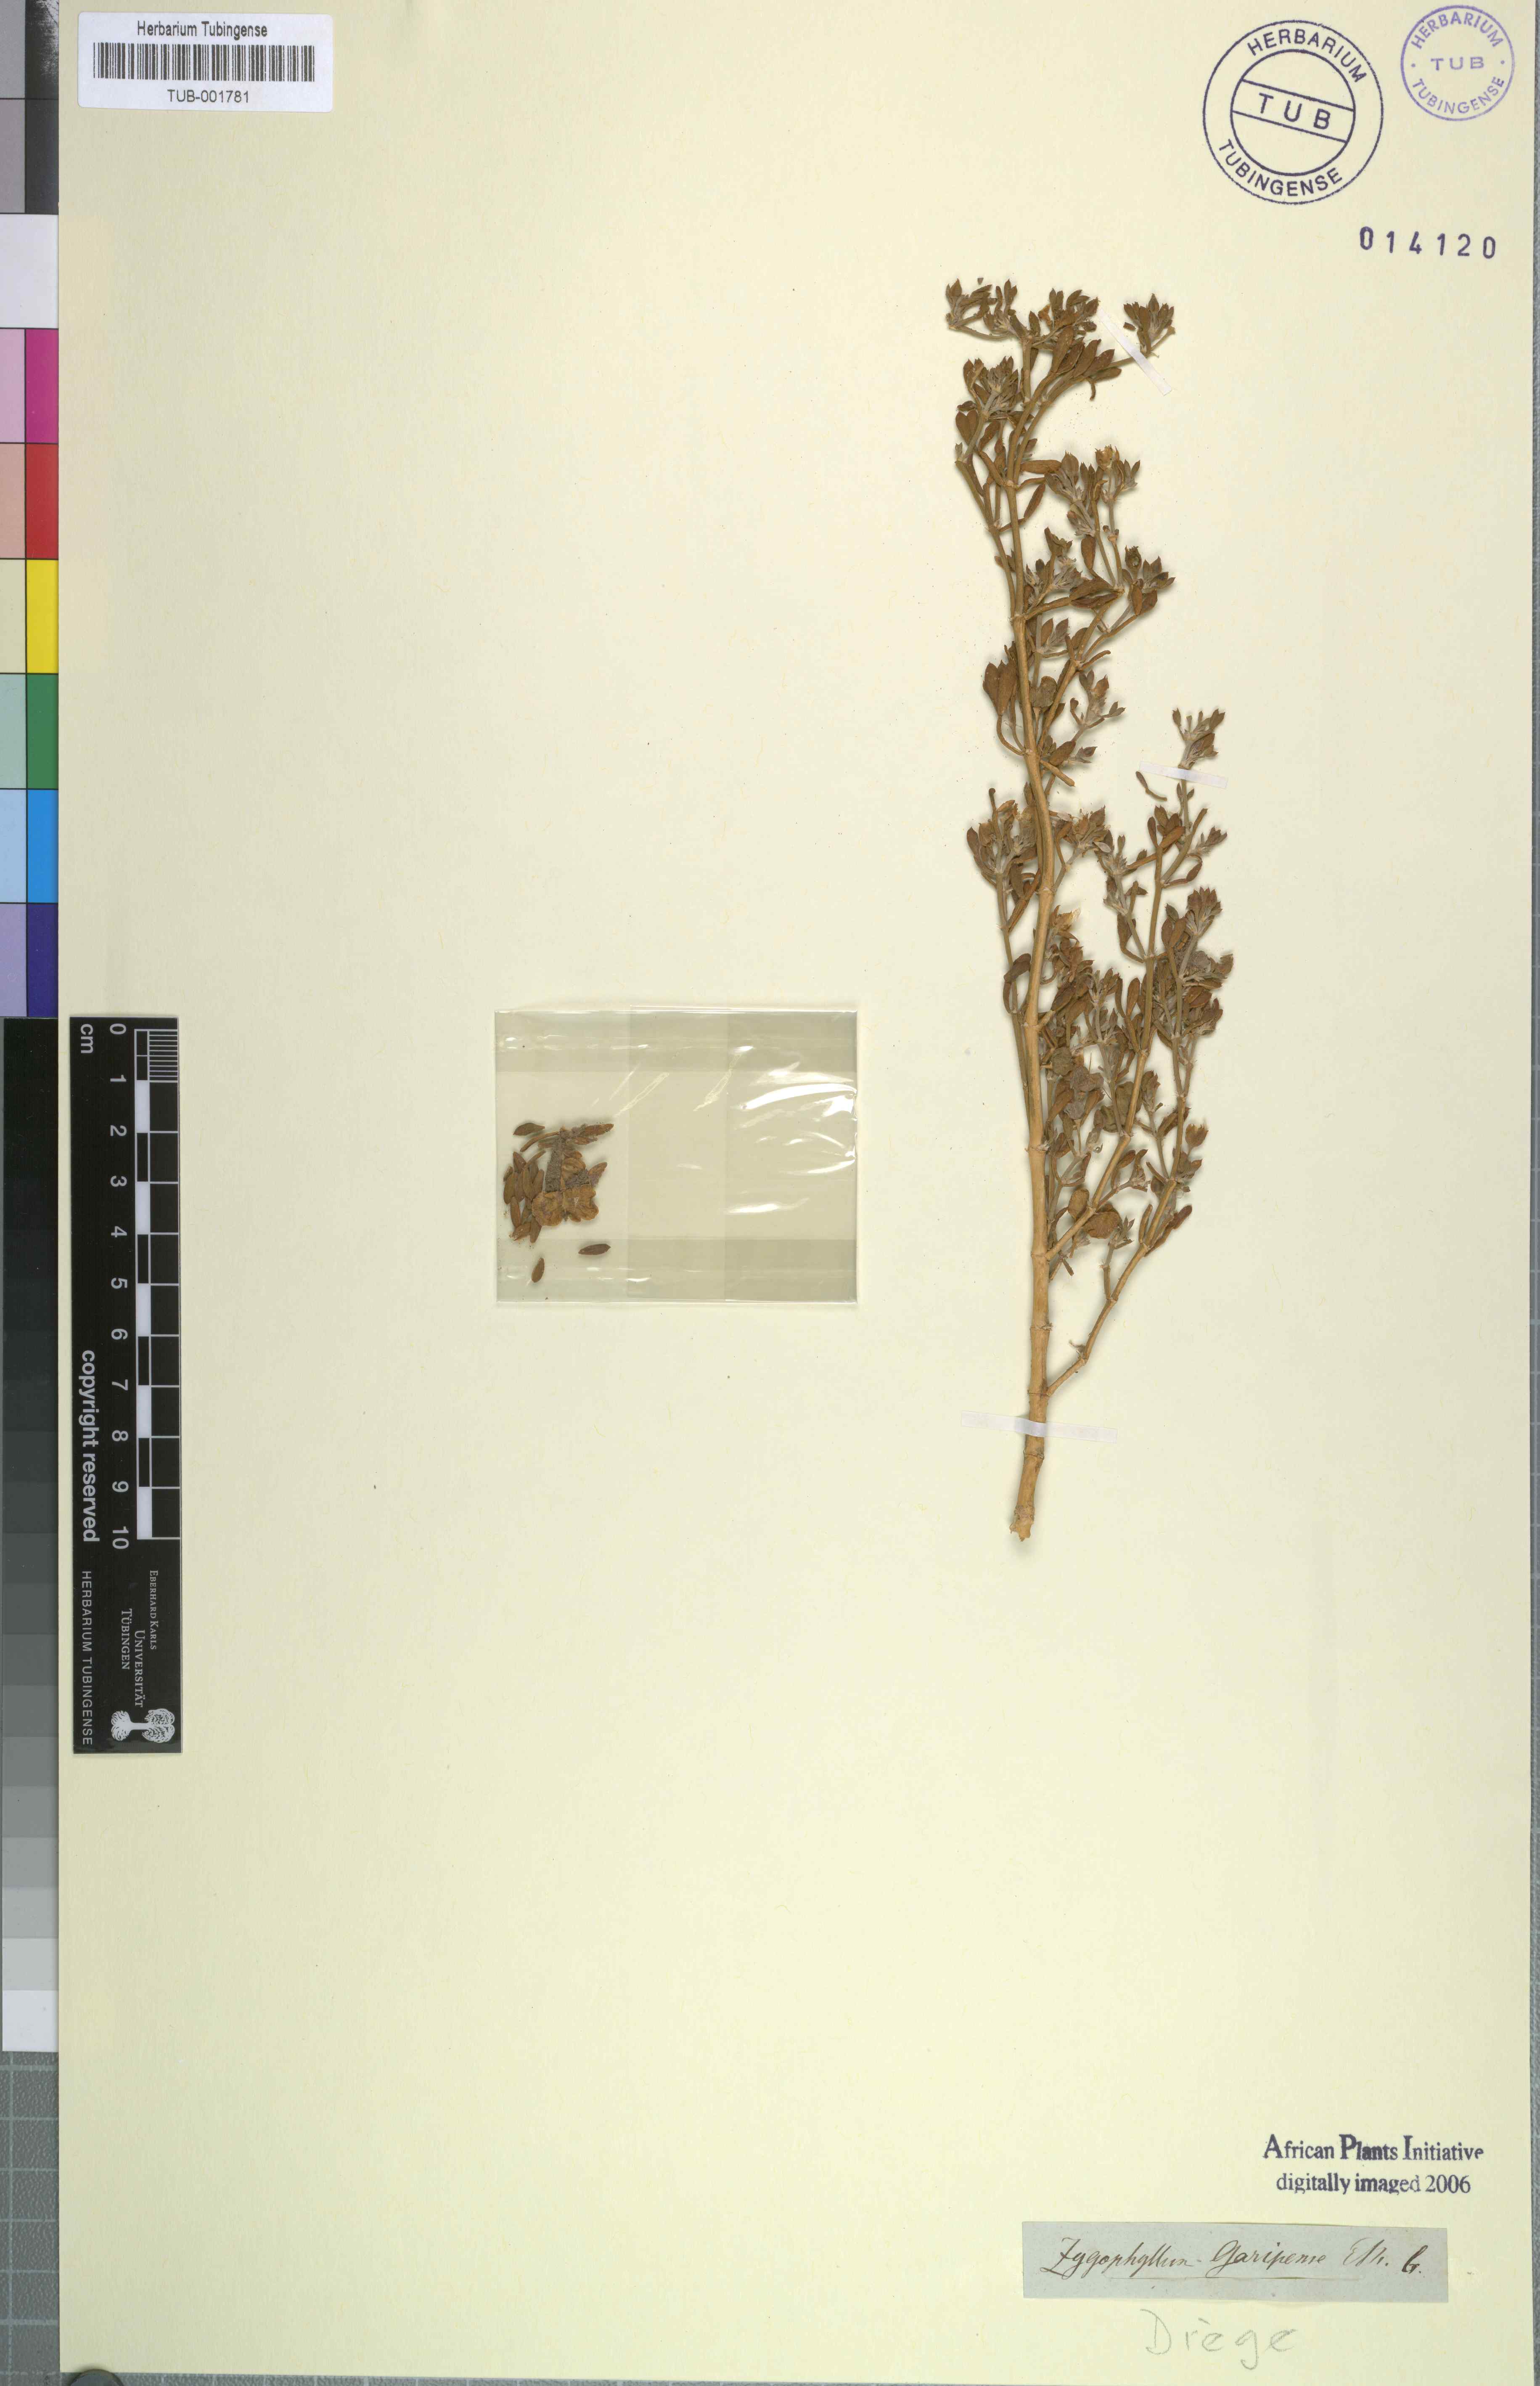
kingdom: Plantae
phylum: Tracheophyta
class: Magnoliopsida
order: Zygophyllales
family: Zygophyllaceae
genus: Tetraena
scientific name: Tetraena microcarpa
